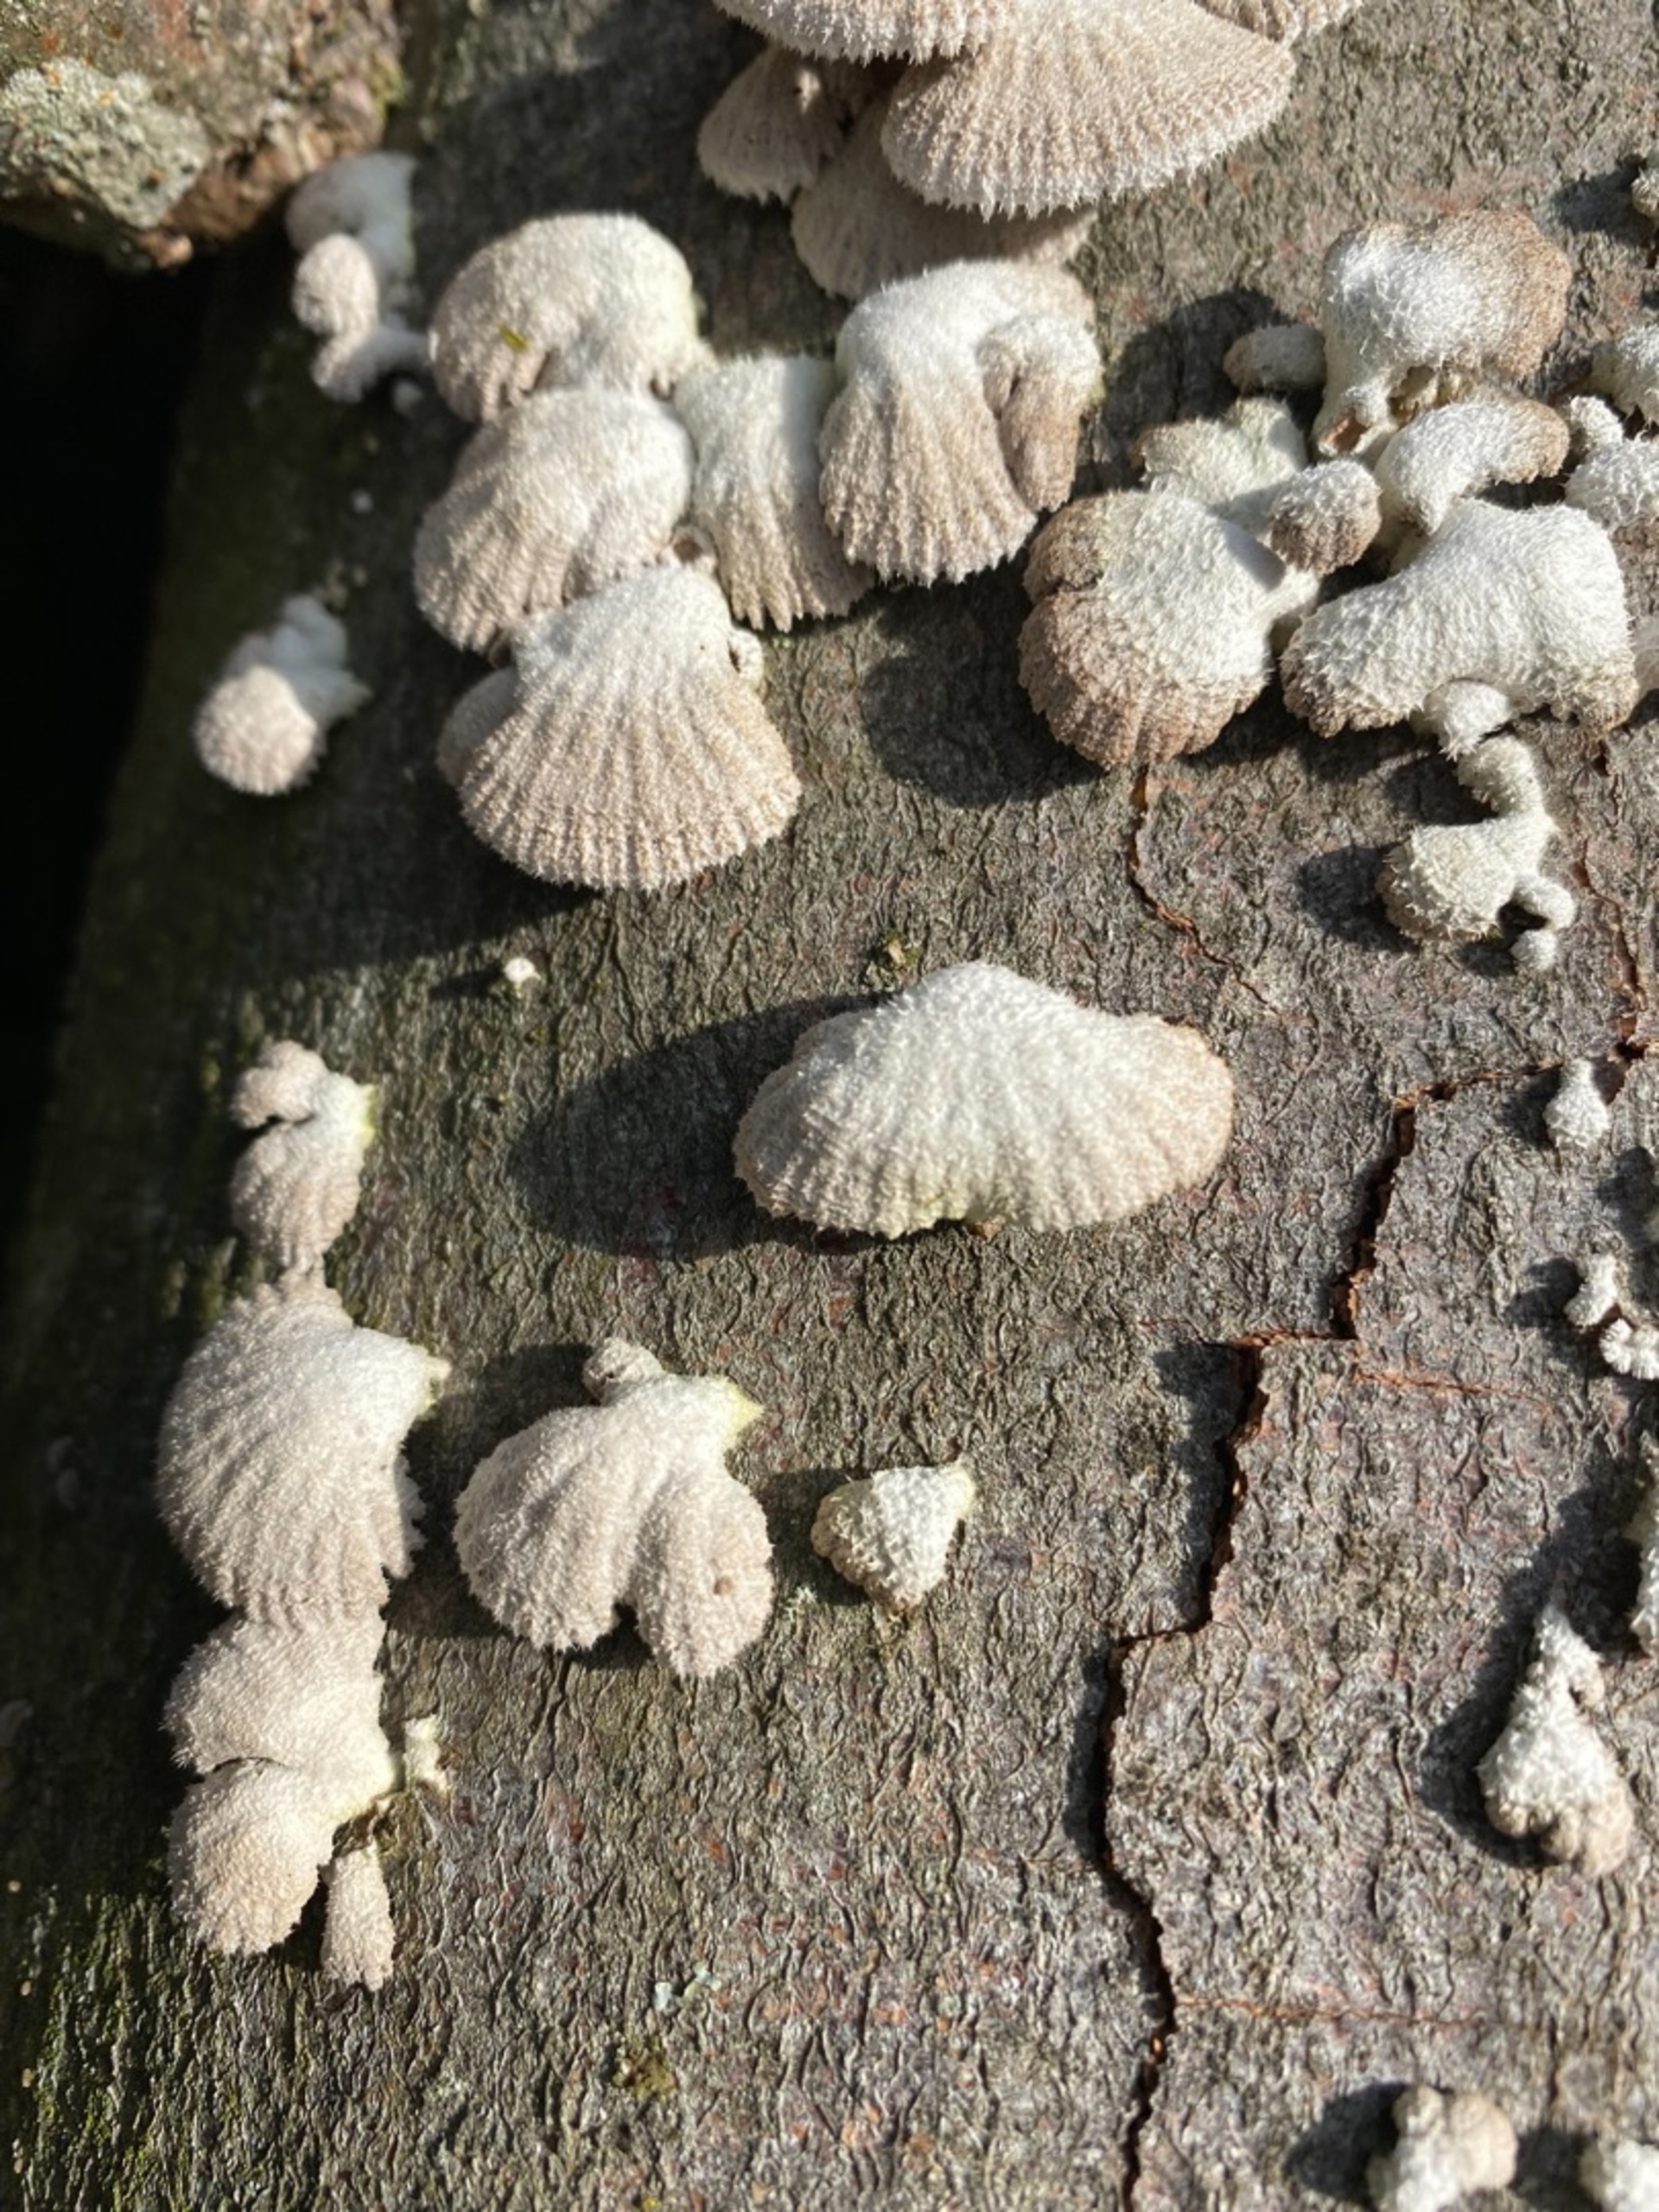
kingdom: Fungi
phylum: Basidiomycota
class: Agaricomycetes
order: Agaricales
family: Schizophyllaceae
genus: Schizophyllum
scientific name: Schizophyllum
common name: Kløvblad
